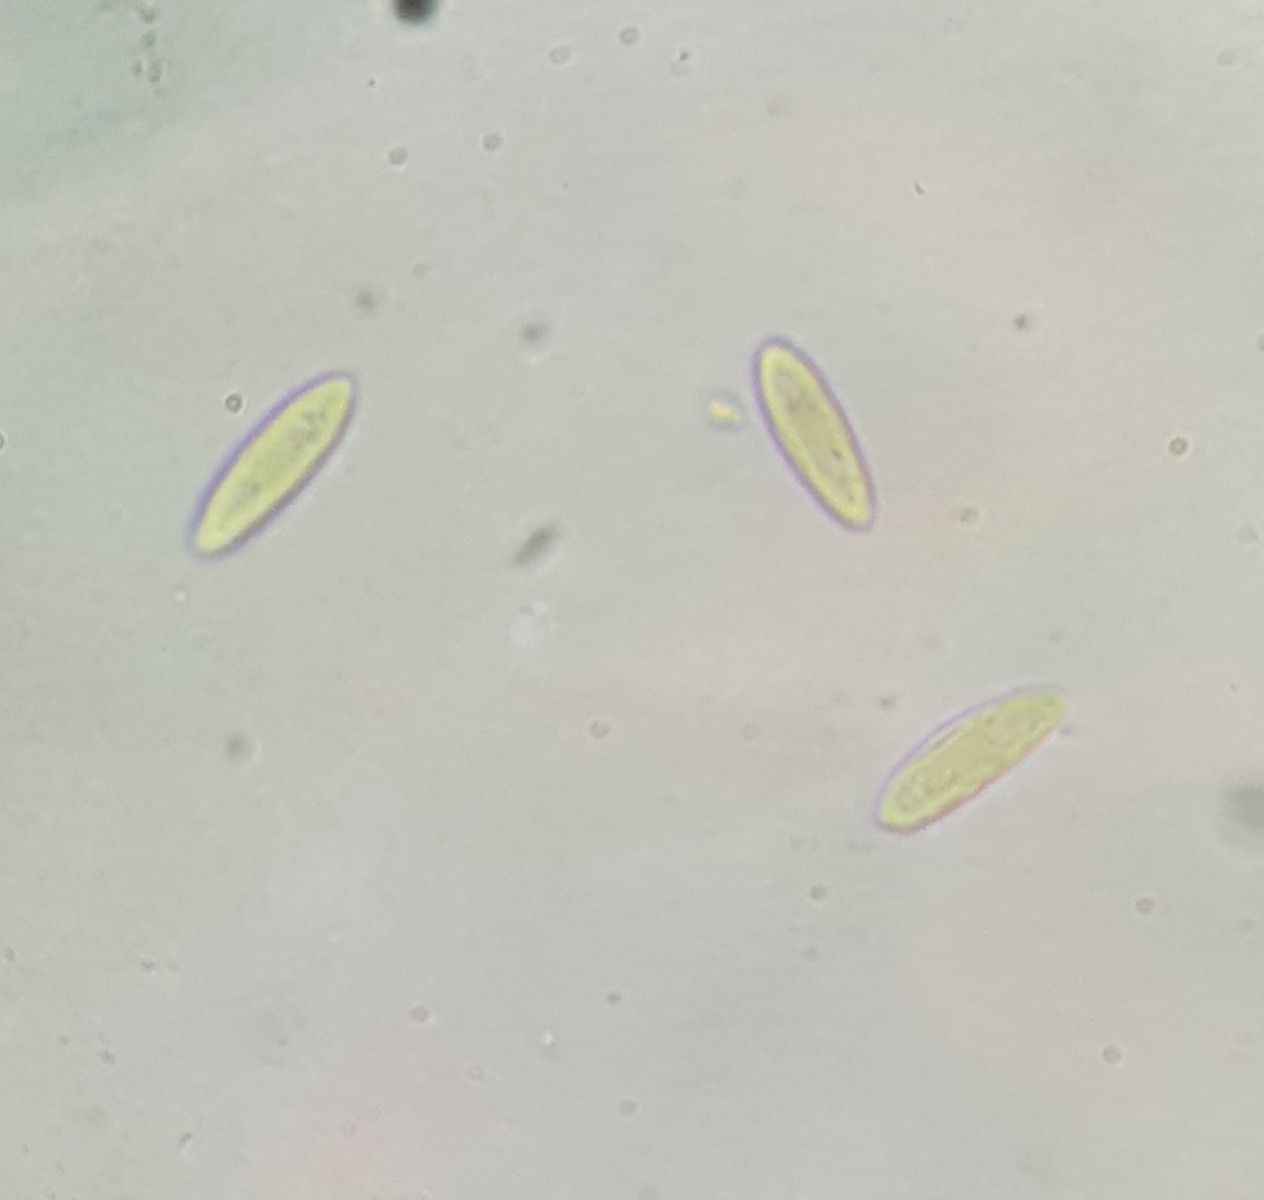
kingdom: Fungi
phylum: Ascomycota
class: Leotiomycetes
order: Helotiales
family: Helotiaceae
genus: Hymenoscyphus
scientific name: Hymenoscyphus calyculus
